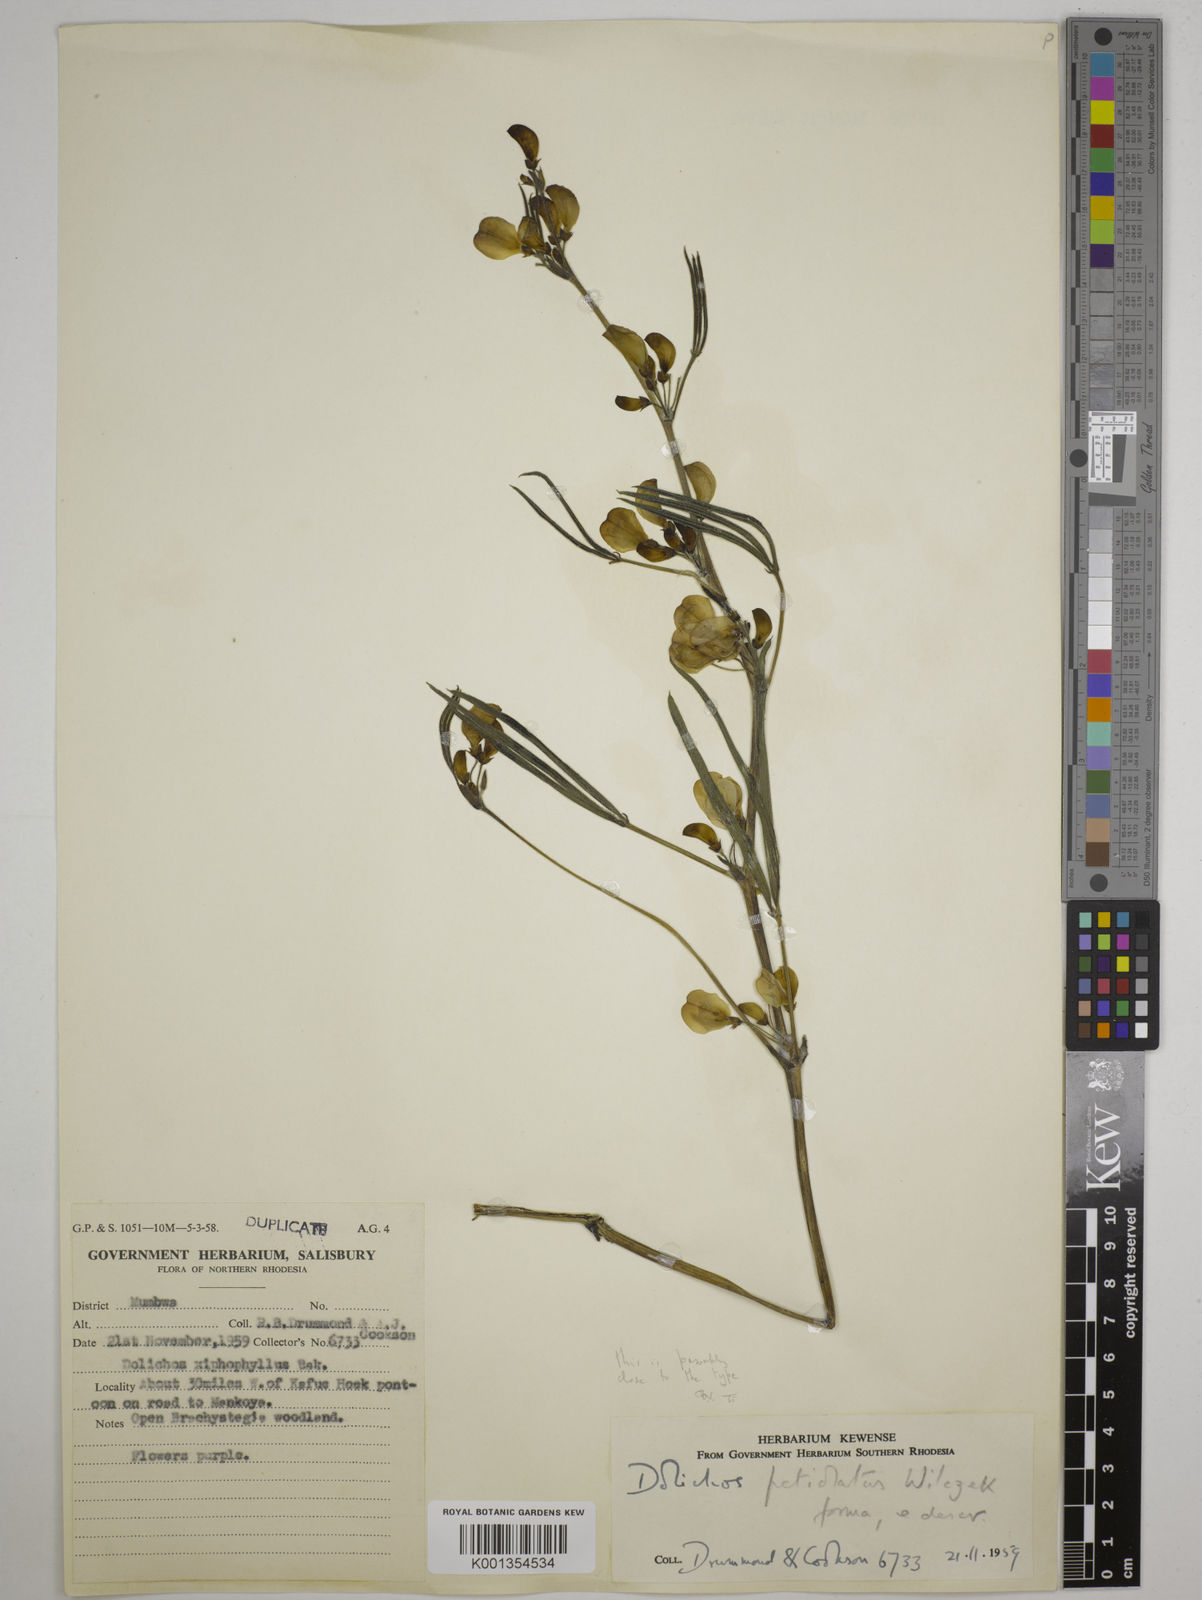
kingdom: Plantae
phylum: Tracheophyta
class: Magnoliopsida
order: Fabales
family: Fabaceae
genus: Dolichos
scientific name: Dolichos petiolatus
